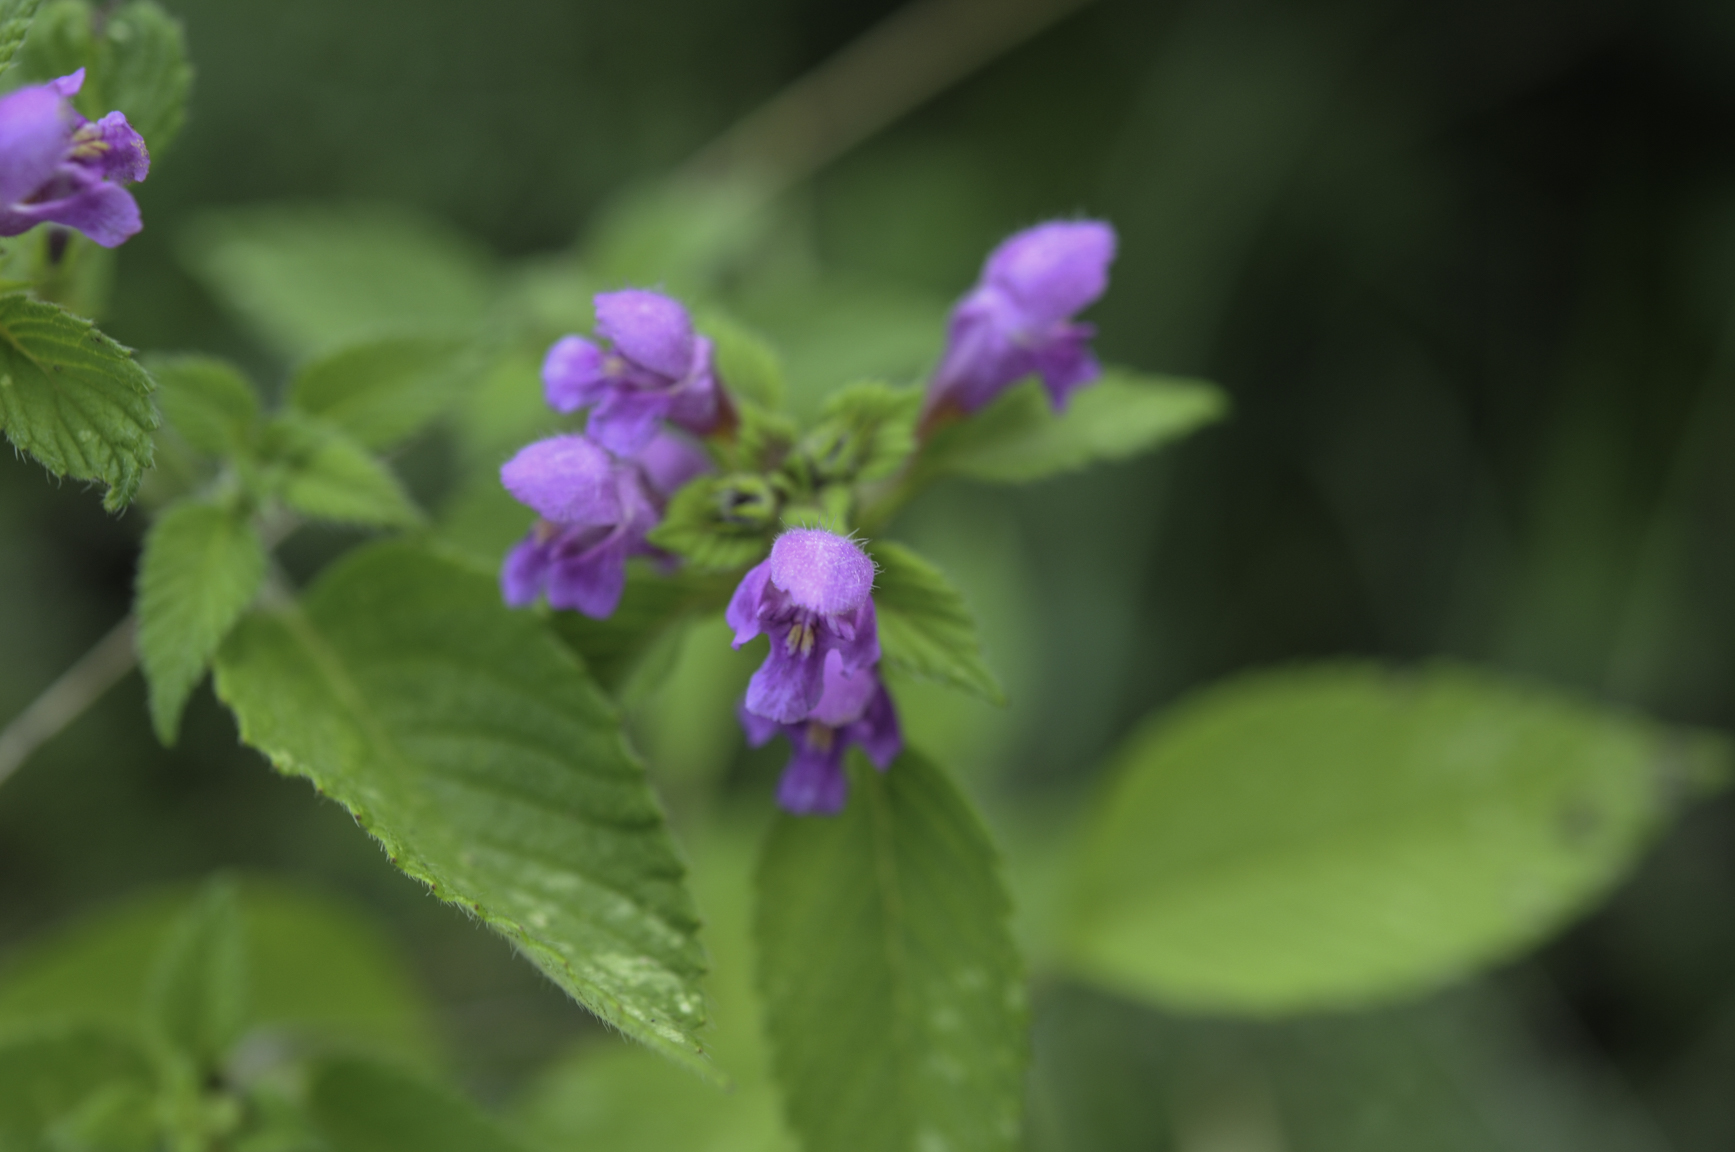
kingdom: Plantae
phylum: Tracheophyta
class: Magnoliopsida
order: Lamiales
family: Lamiaceae
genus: Galeopsis
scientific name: Galeopsis pubescens
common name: Downy hemp-nettle
